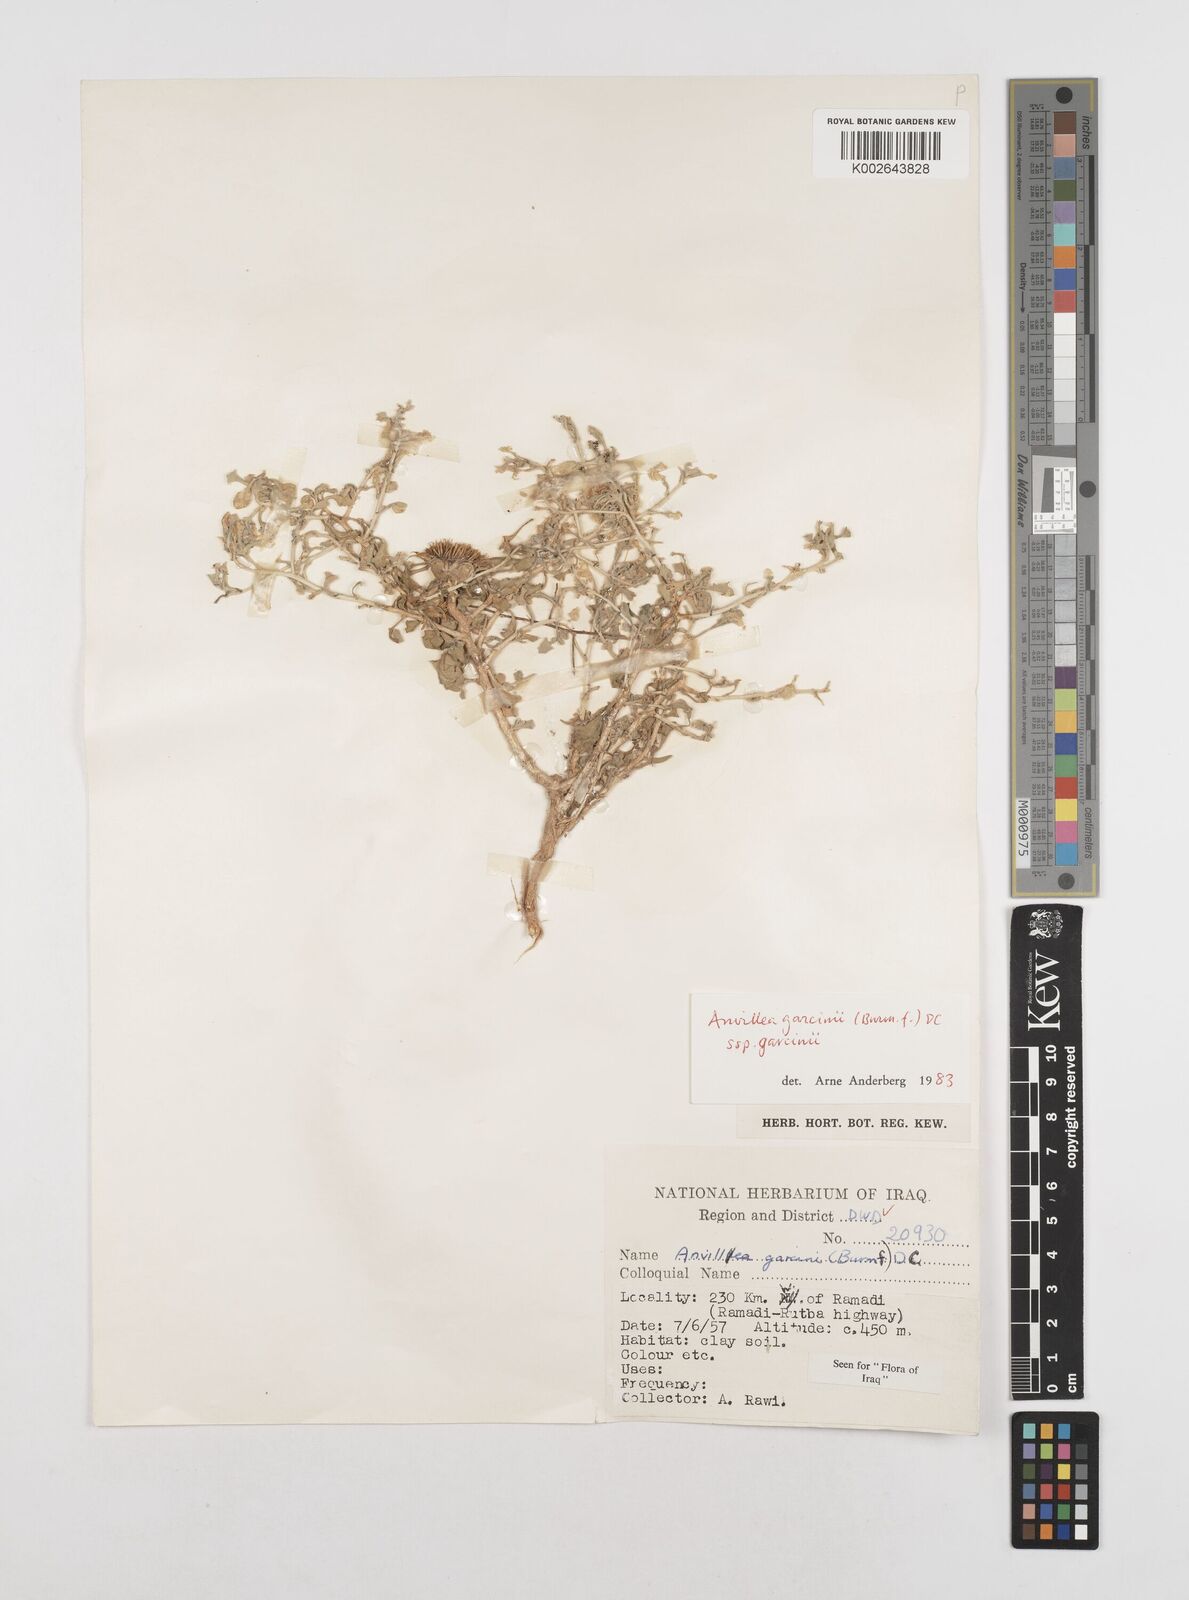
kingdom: Plantae
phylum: Tracheophyta
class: Magnoliopsida
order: Asterales
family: Asteraceae
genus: Anvillea
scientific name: Anvillea garcinii
